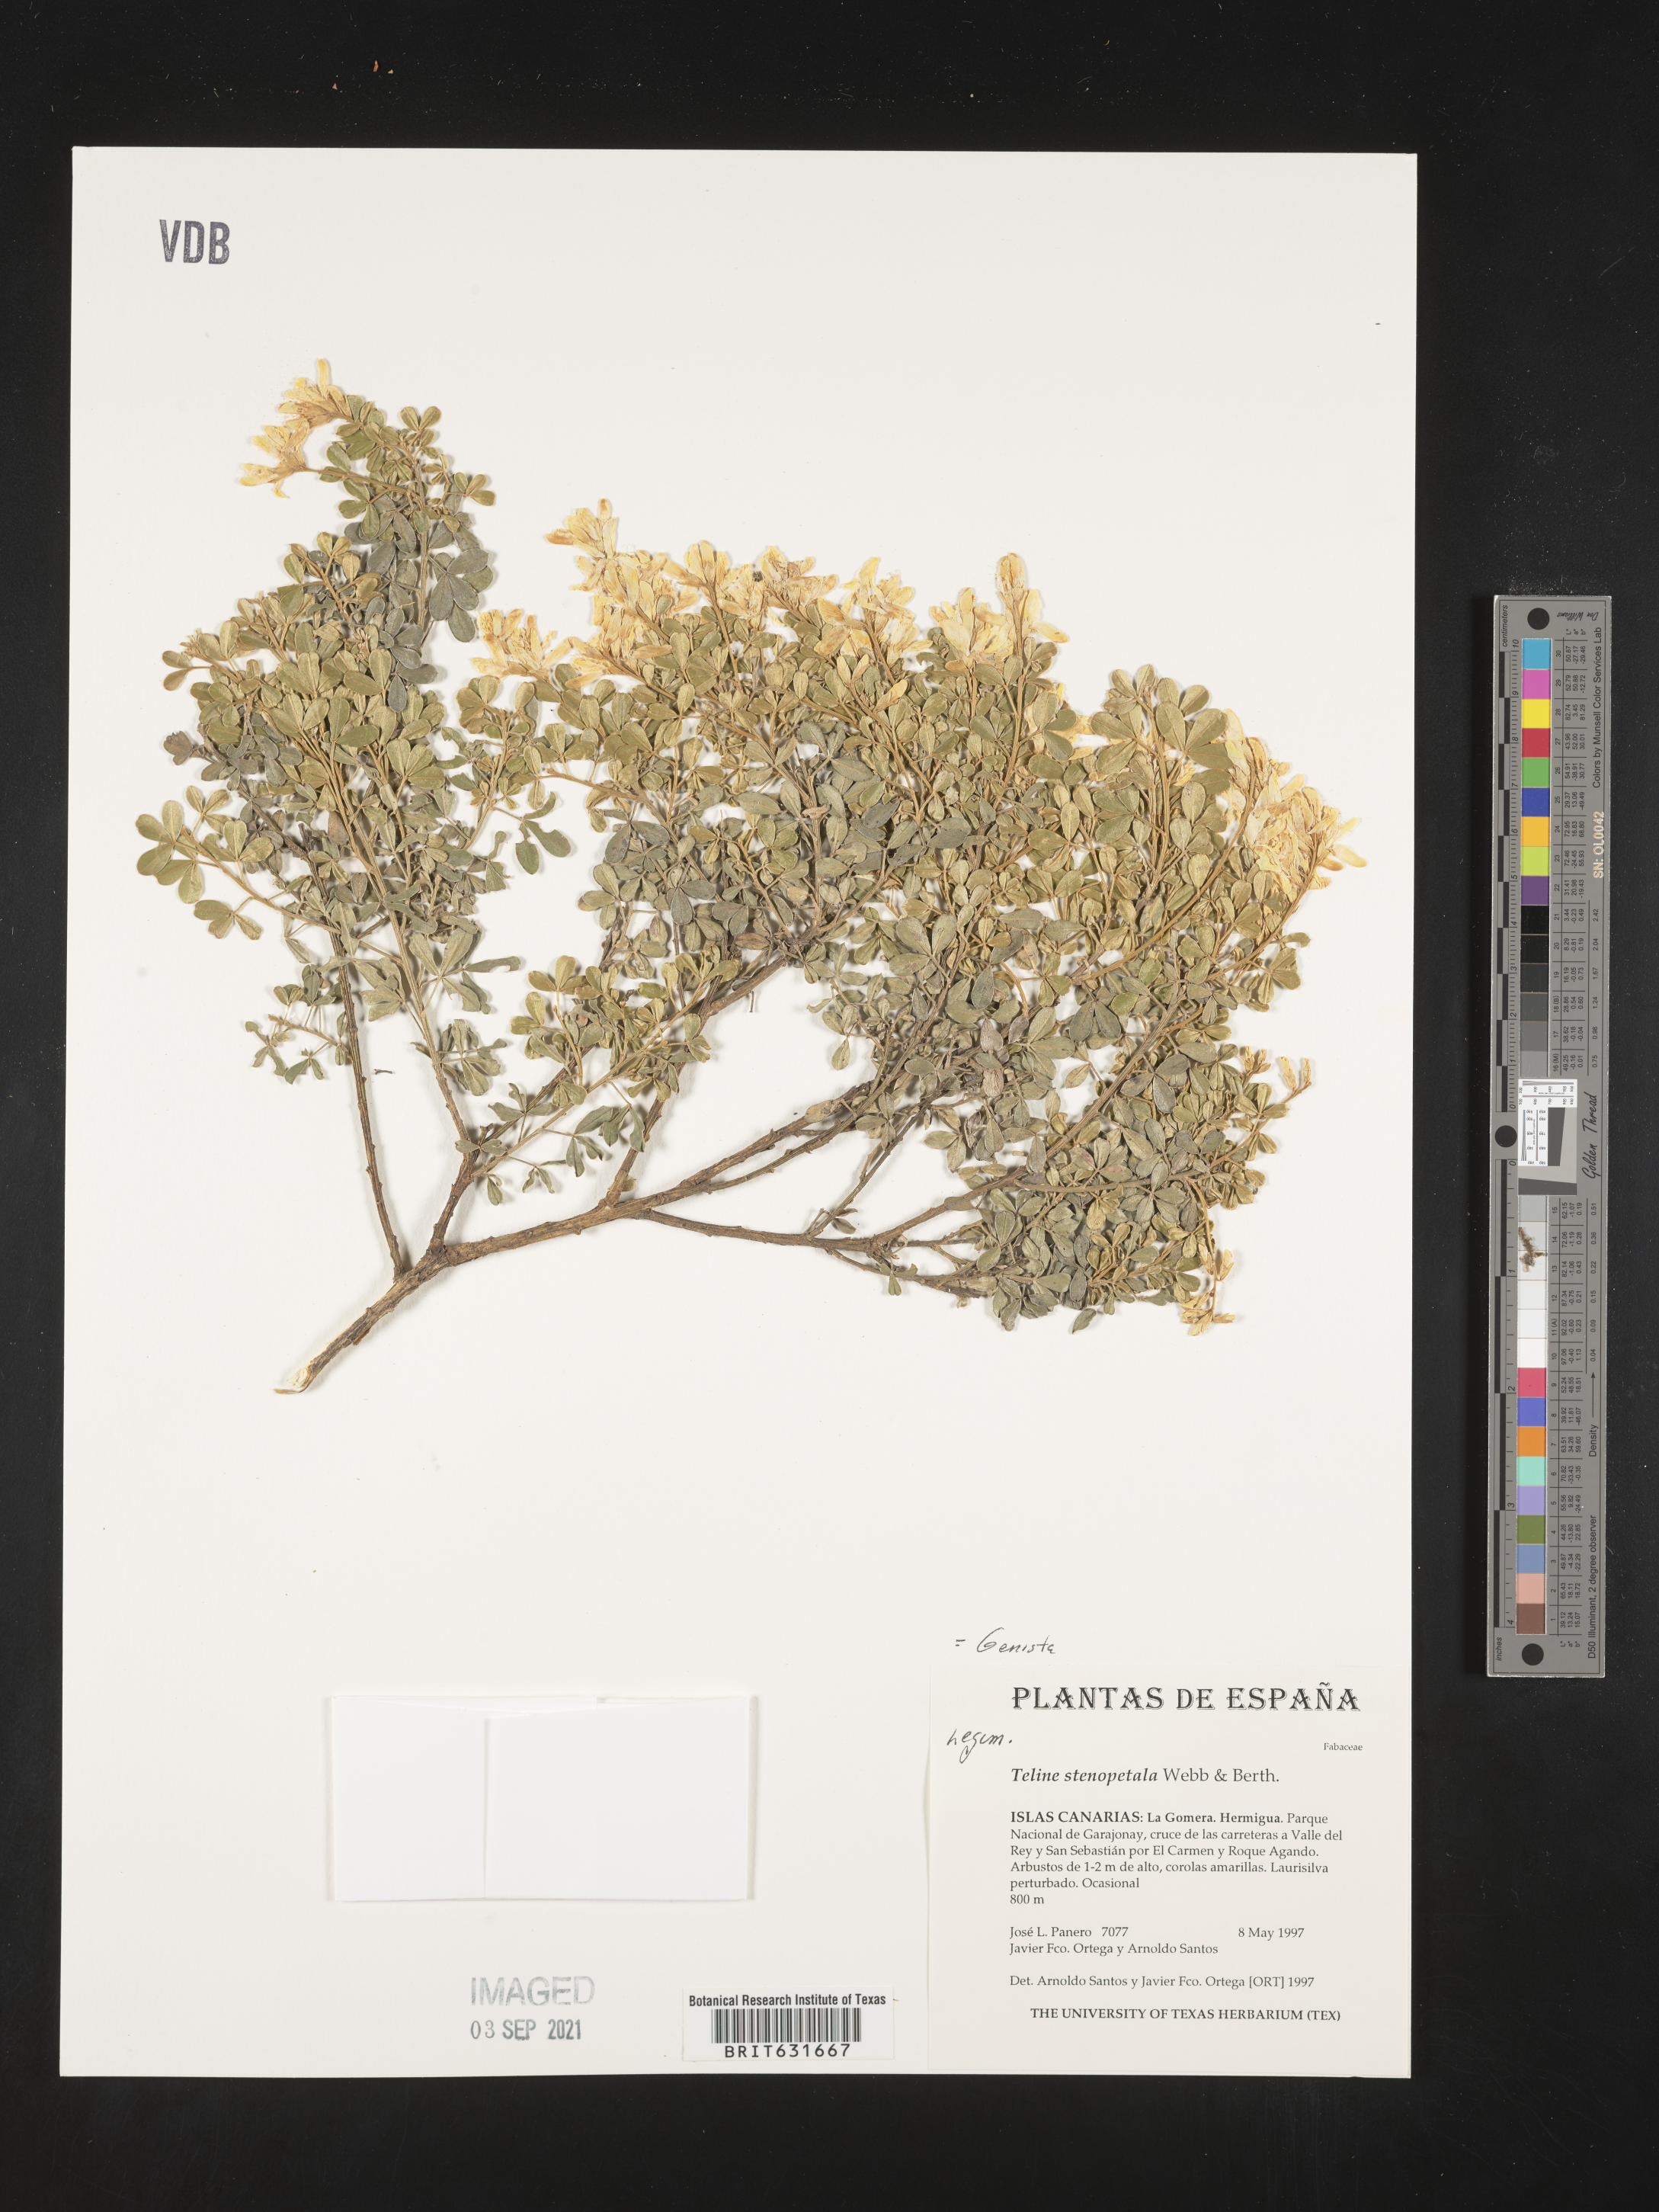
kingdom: Plantae
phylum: Tracheophyta
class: Magnoliopsida
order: Fabales
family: Fabaceae
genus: Genista
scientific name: Genista
